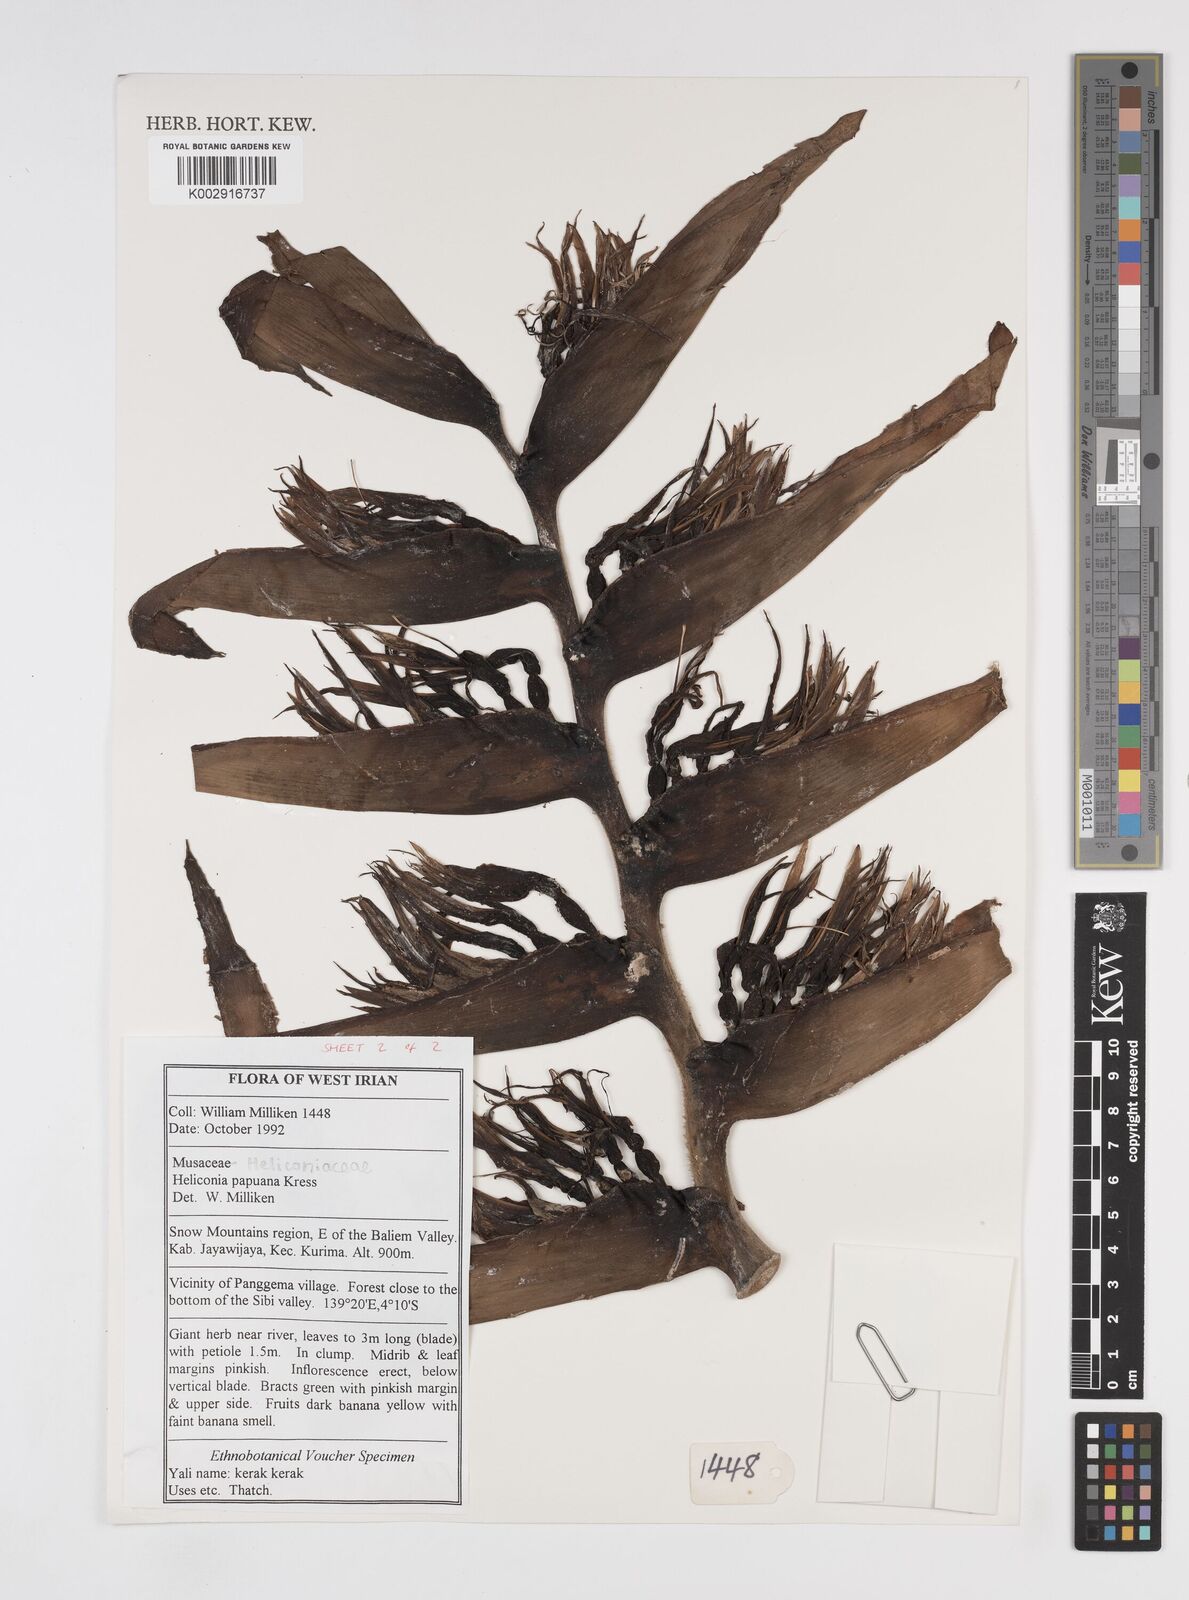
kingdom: Plantae
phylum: Tracheophyta
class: Liliopsida
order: Zingiberales
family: Heliconiaceae
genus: Heliconia
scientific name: Heliconia papuana
